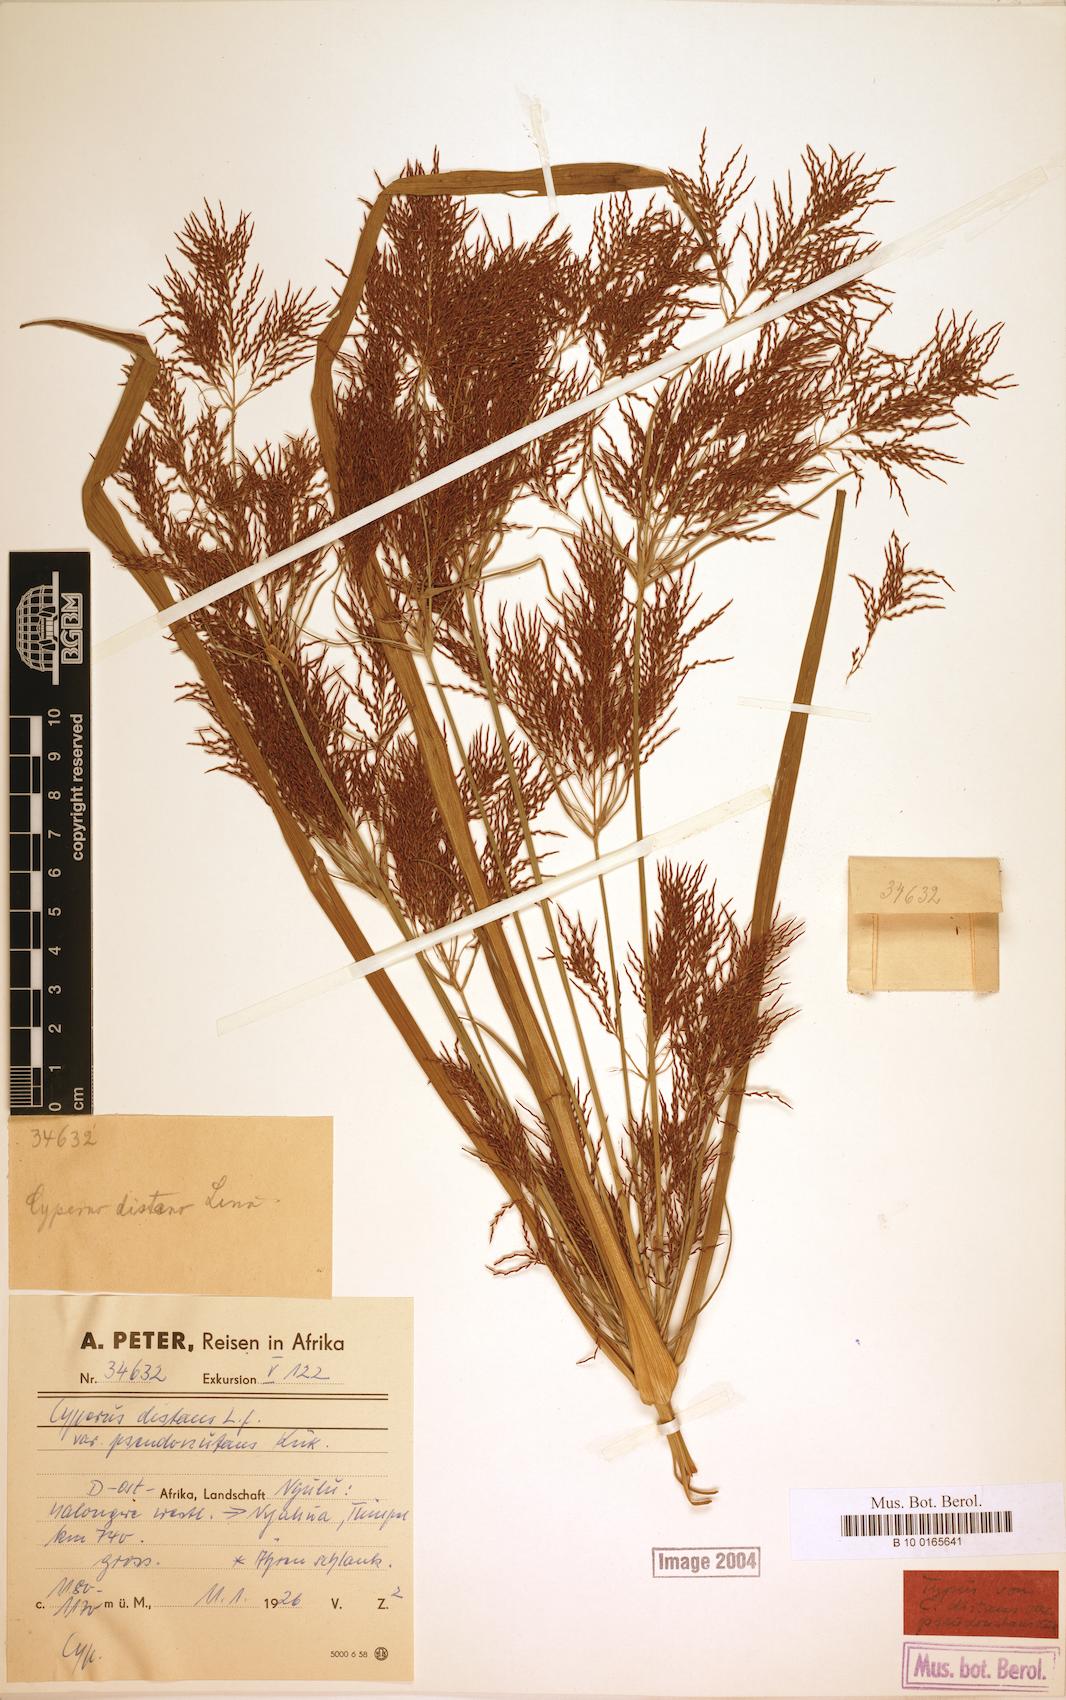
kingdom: Plantae
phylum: Tracheophyta
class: Liliopsida
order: Poales
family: Cyperaceae
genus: Cyperus
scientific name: Cyperus distans
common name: Slender cyperus
